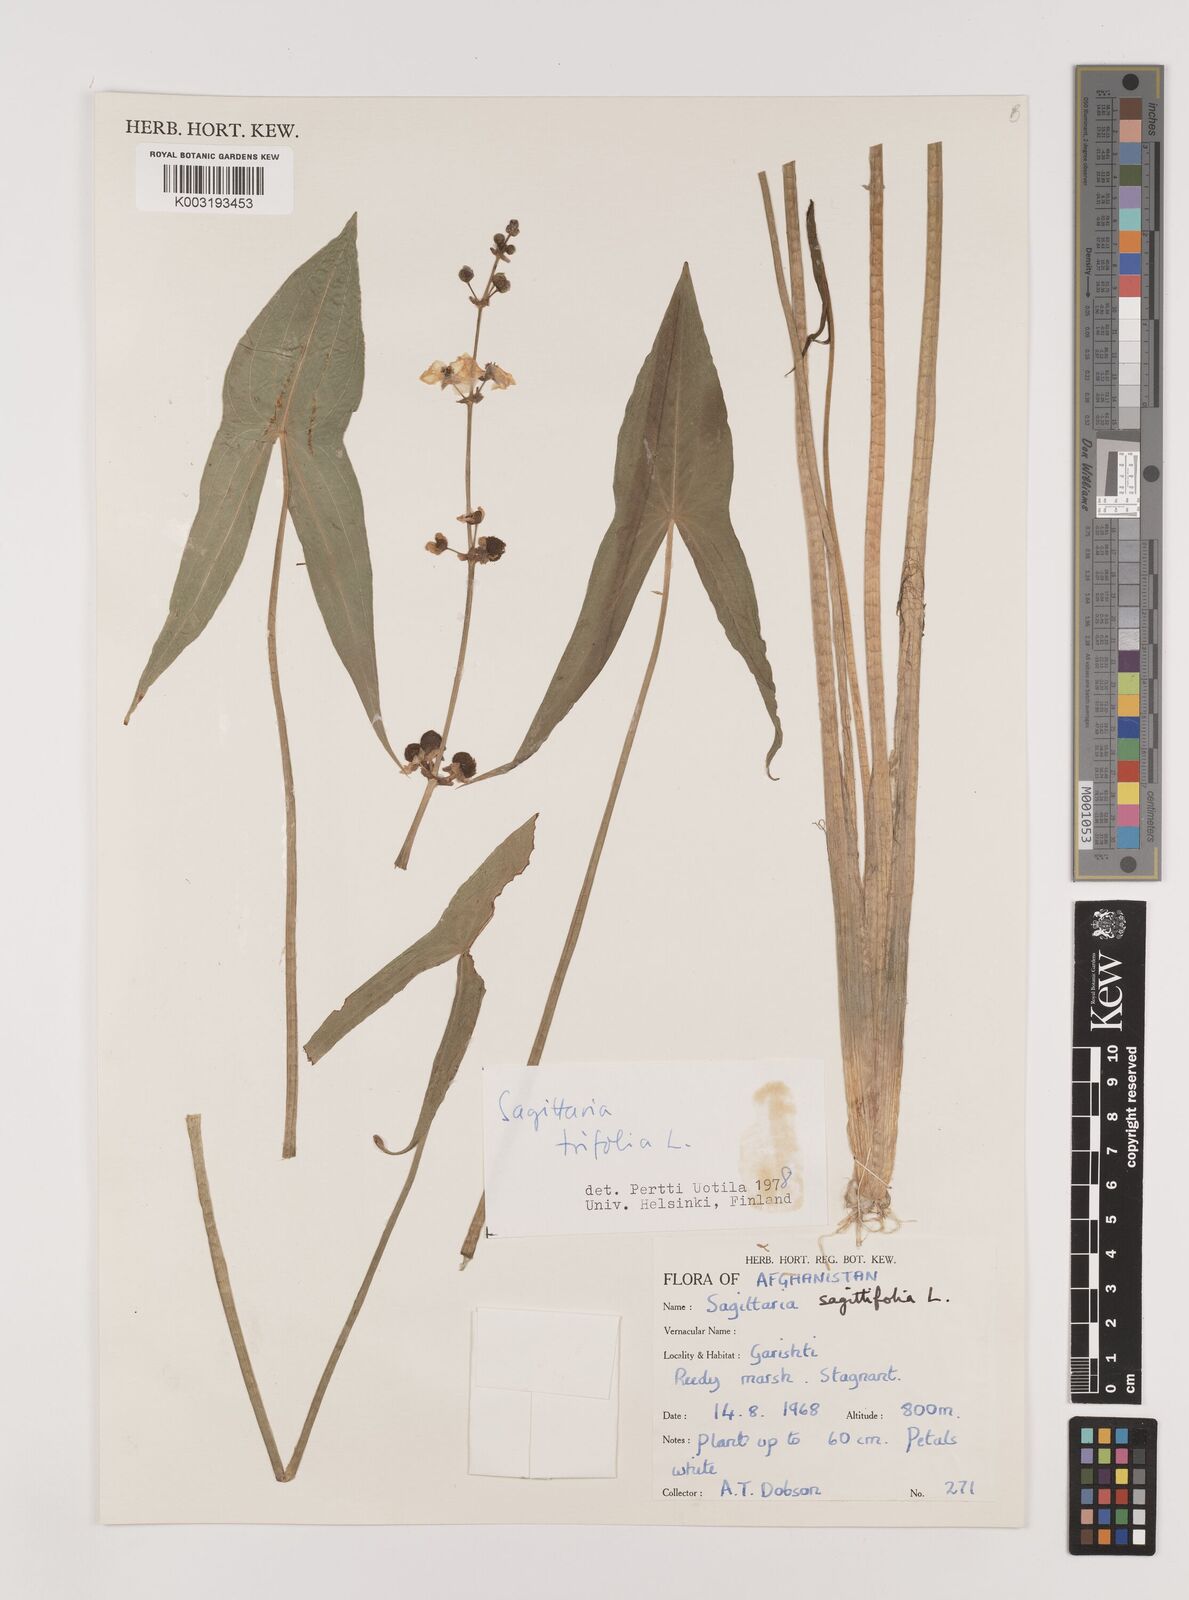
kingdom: Plantae
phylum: Tracheophyta
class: Liliopsida
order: Alismatales
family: Alismataceae
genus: Sagittaria
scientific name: Sagittaria trifolia
